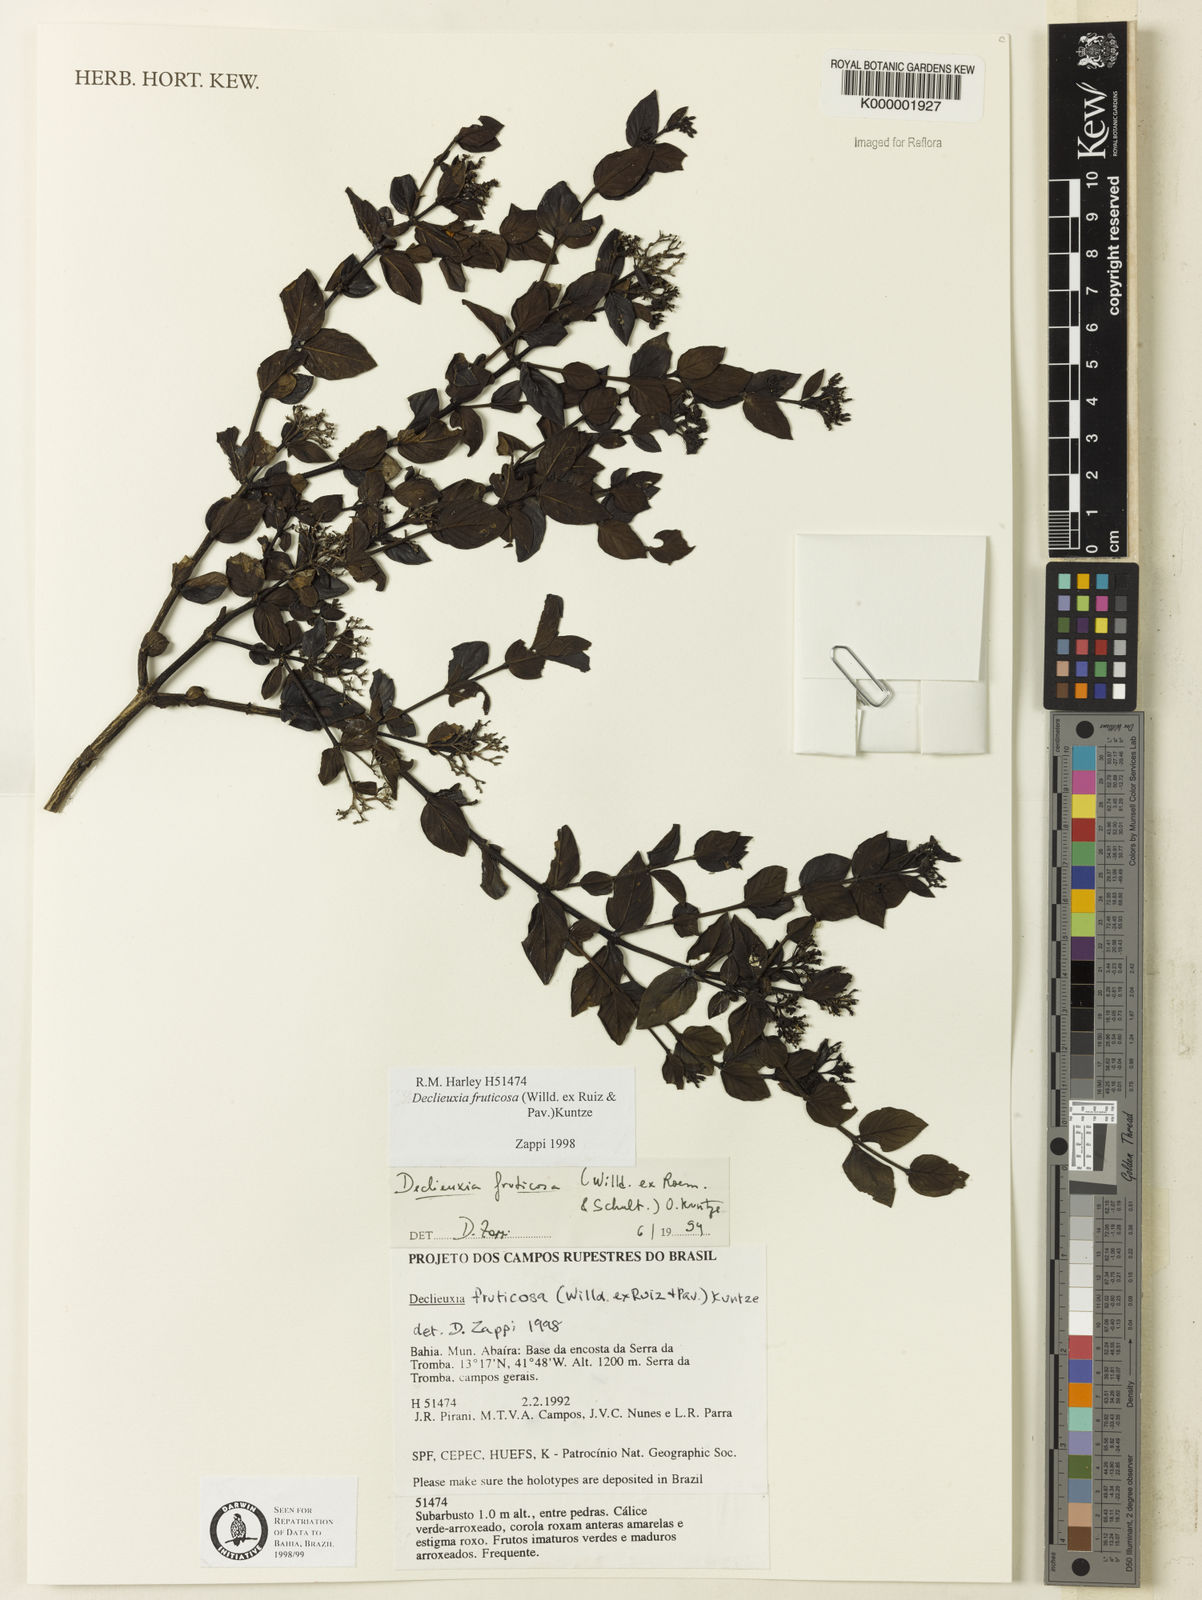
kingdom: Plantae
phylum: Tracheophyta
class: Magnoliopsida
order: Gentianales
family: Rubiaceae
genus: Declieuxia
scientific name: Declieuxia fruticosa
